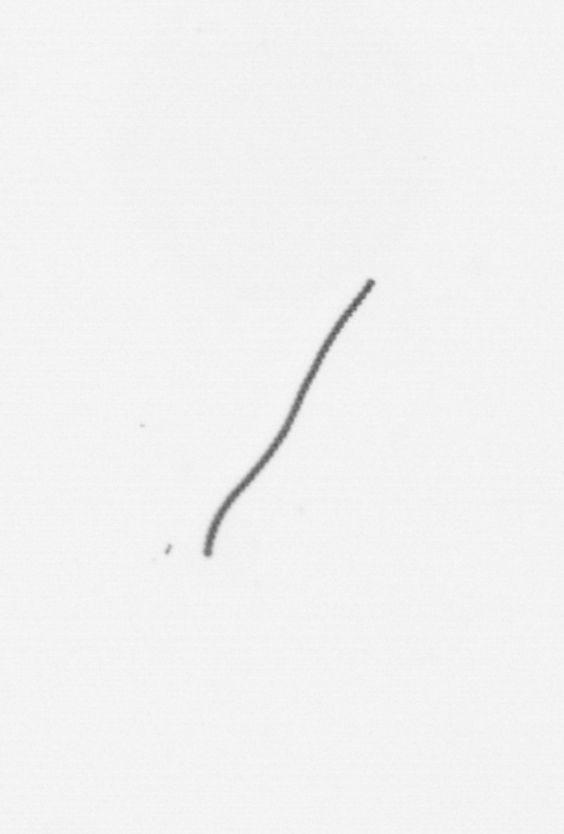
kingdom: Chromista
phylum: Ochrophyta
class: Bacillariophyceae
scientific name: Bacillariophyceae
